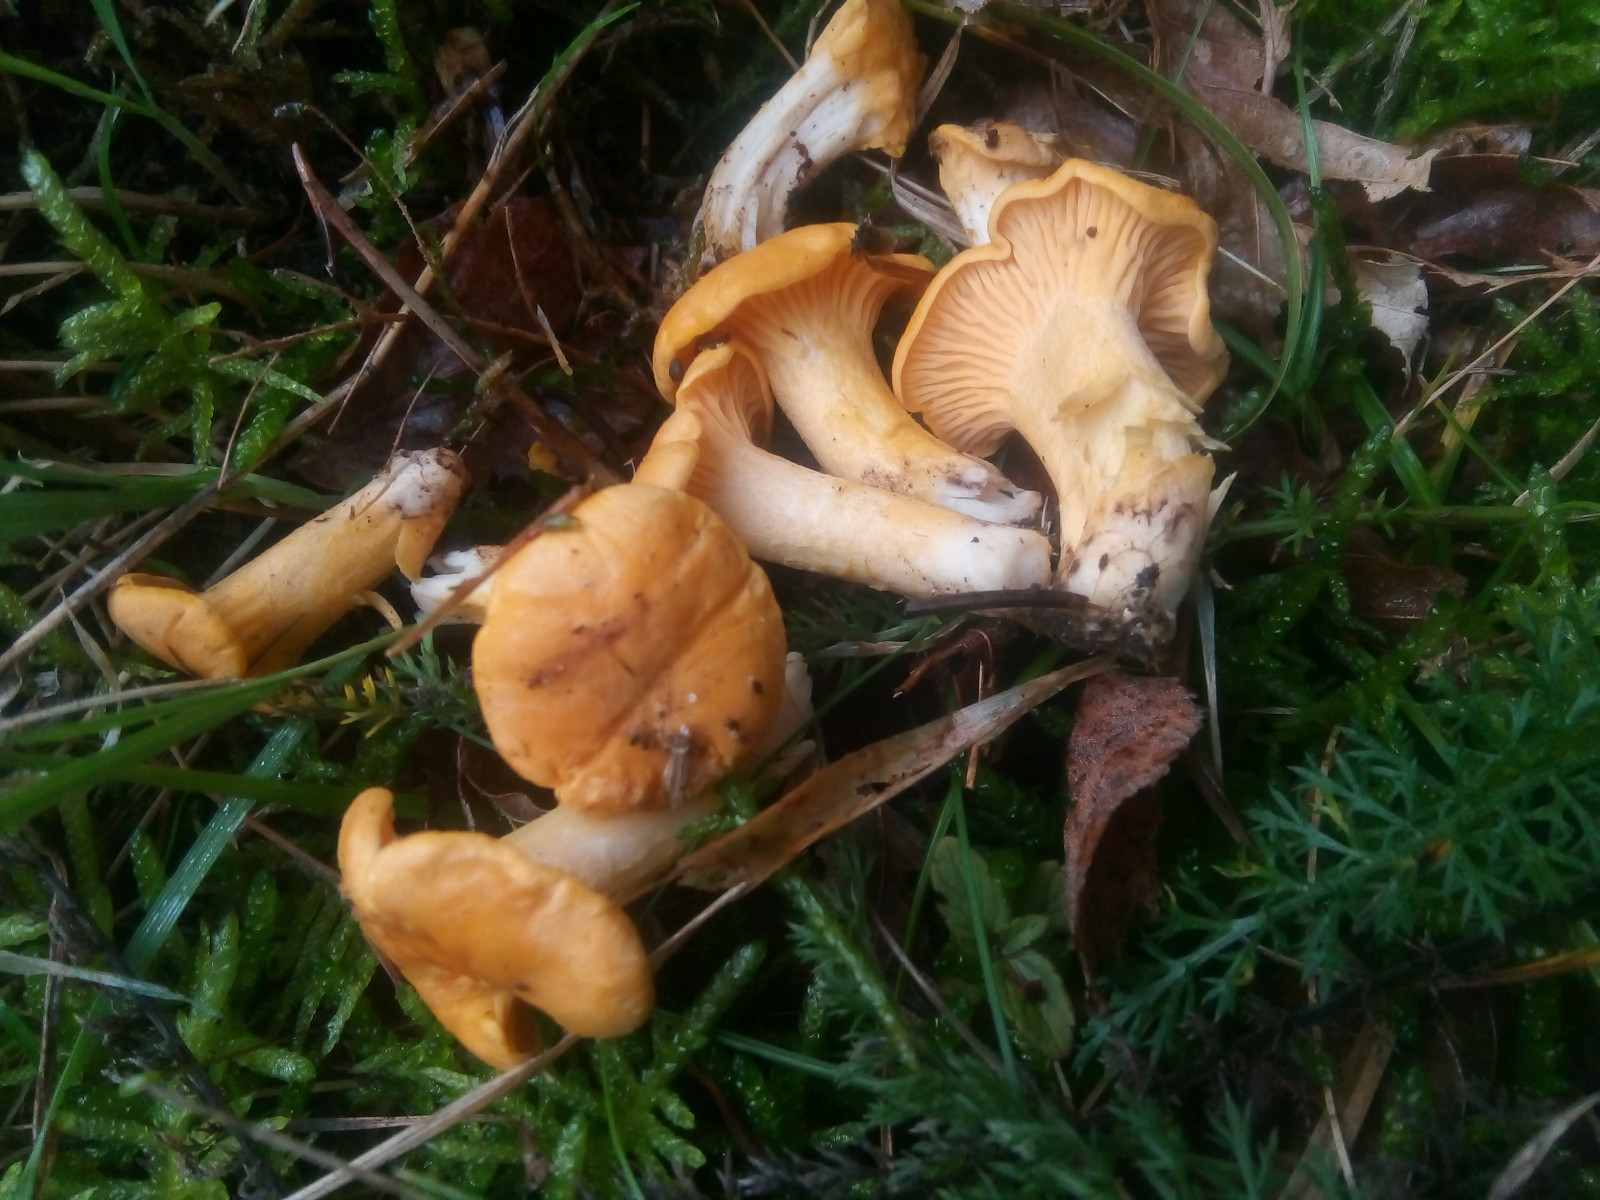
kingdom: Fungi
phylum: Basidiomycota
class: Agaricomycetes
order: Cantharellales
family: Hydnaceae
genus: Cantharellus
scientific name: Cantharellus cibarius
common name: almindelig kantarel
